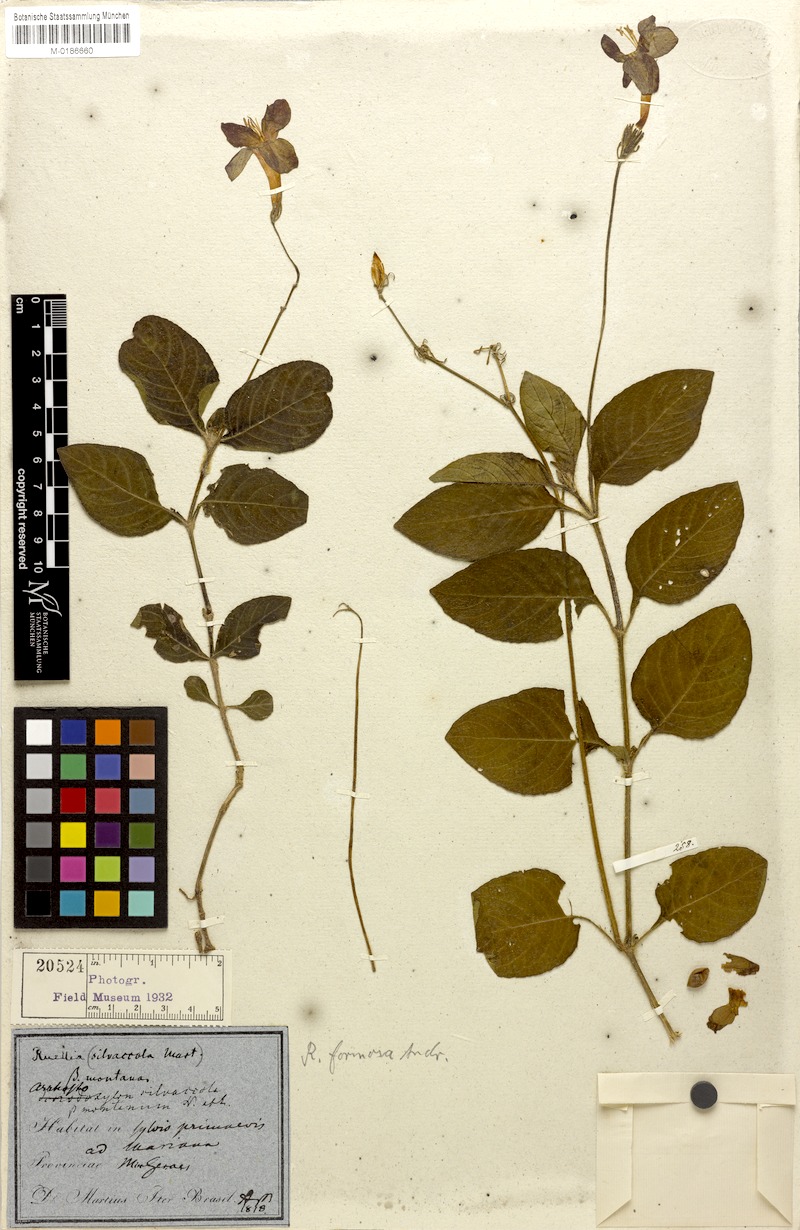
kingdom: Plantae
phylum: Tracheophyta
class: Magnoliopsida
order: Lamiales
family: Acanthaceae
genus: Ruellia
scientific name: Ruellia elegans
